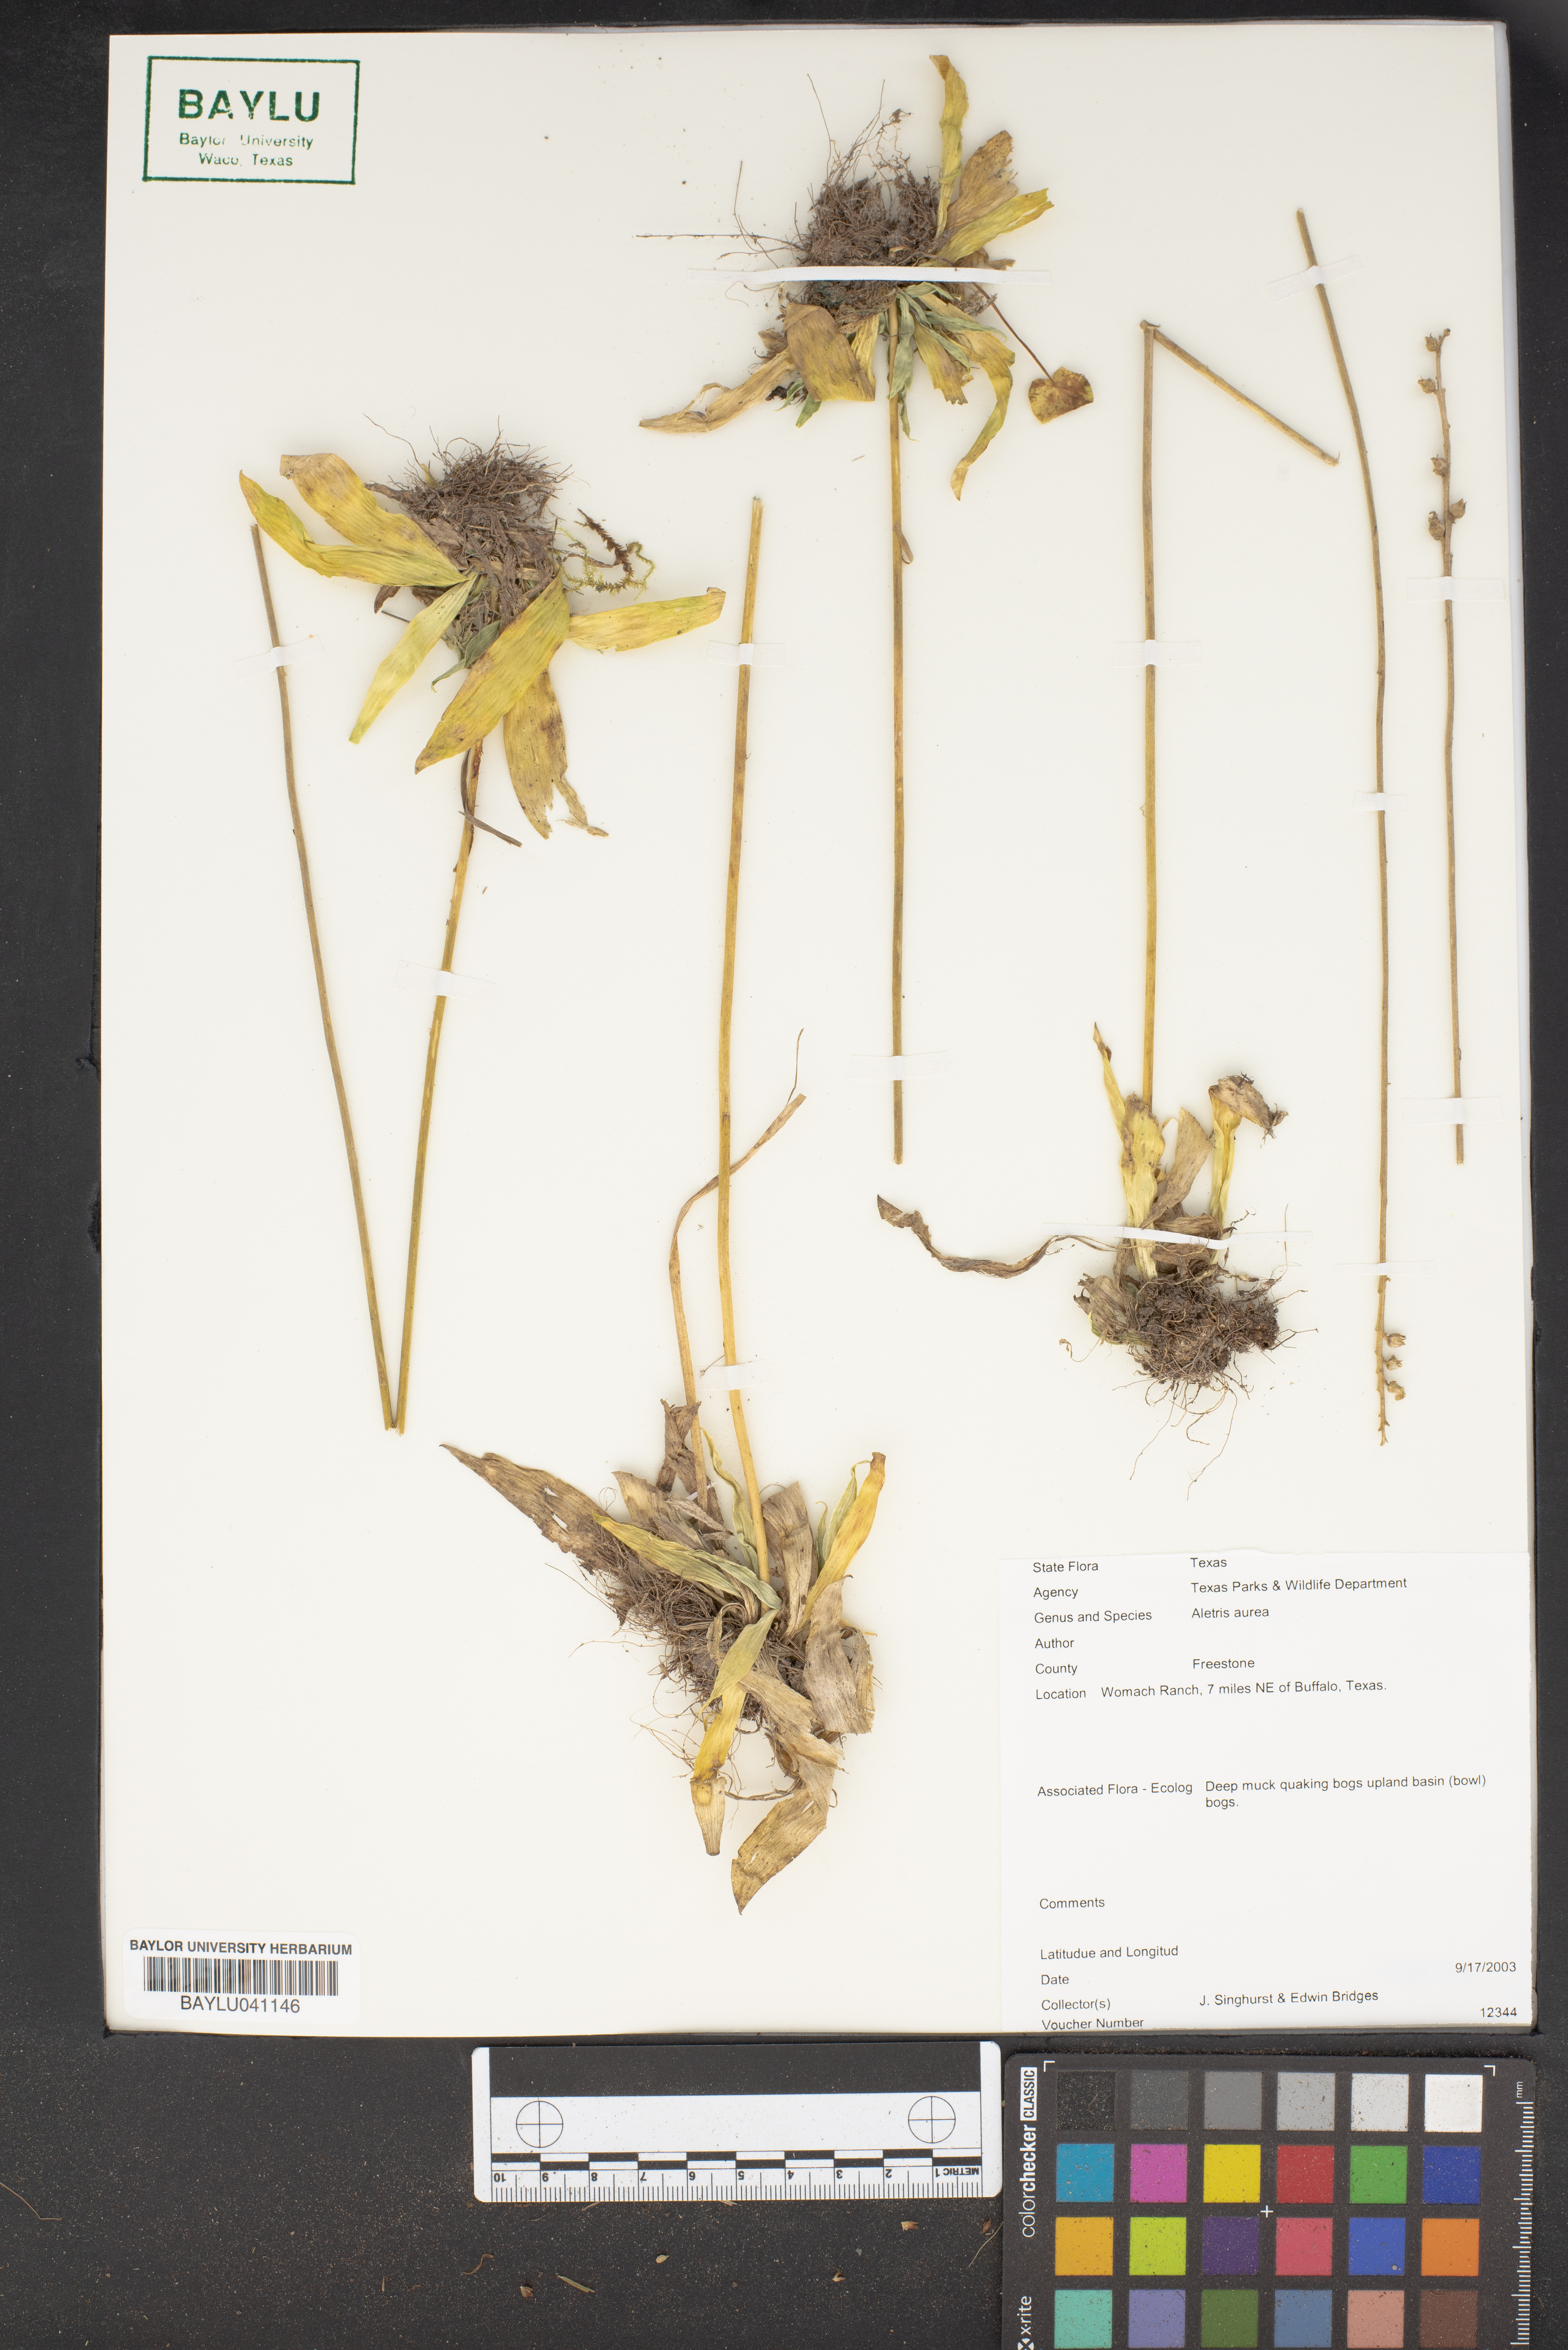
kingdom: Plantae
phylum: Tracheophyta
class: Liliopsida
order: Dioscoreales
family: Nartheciaceae
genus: Aletris
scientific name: Aletris aurea
